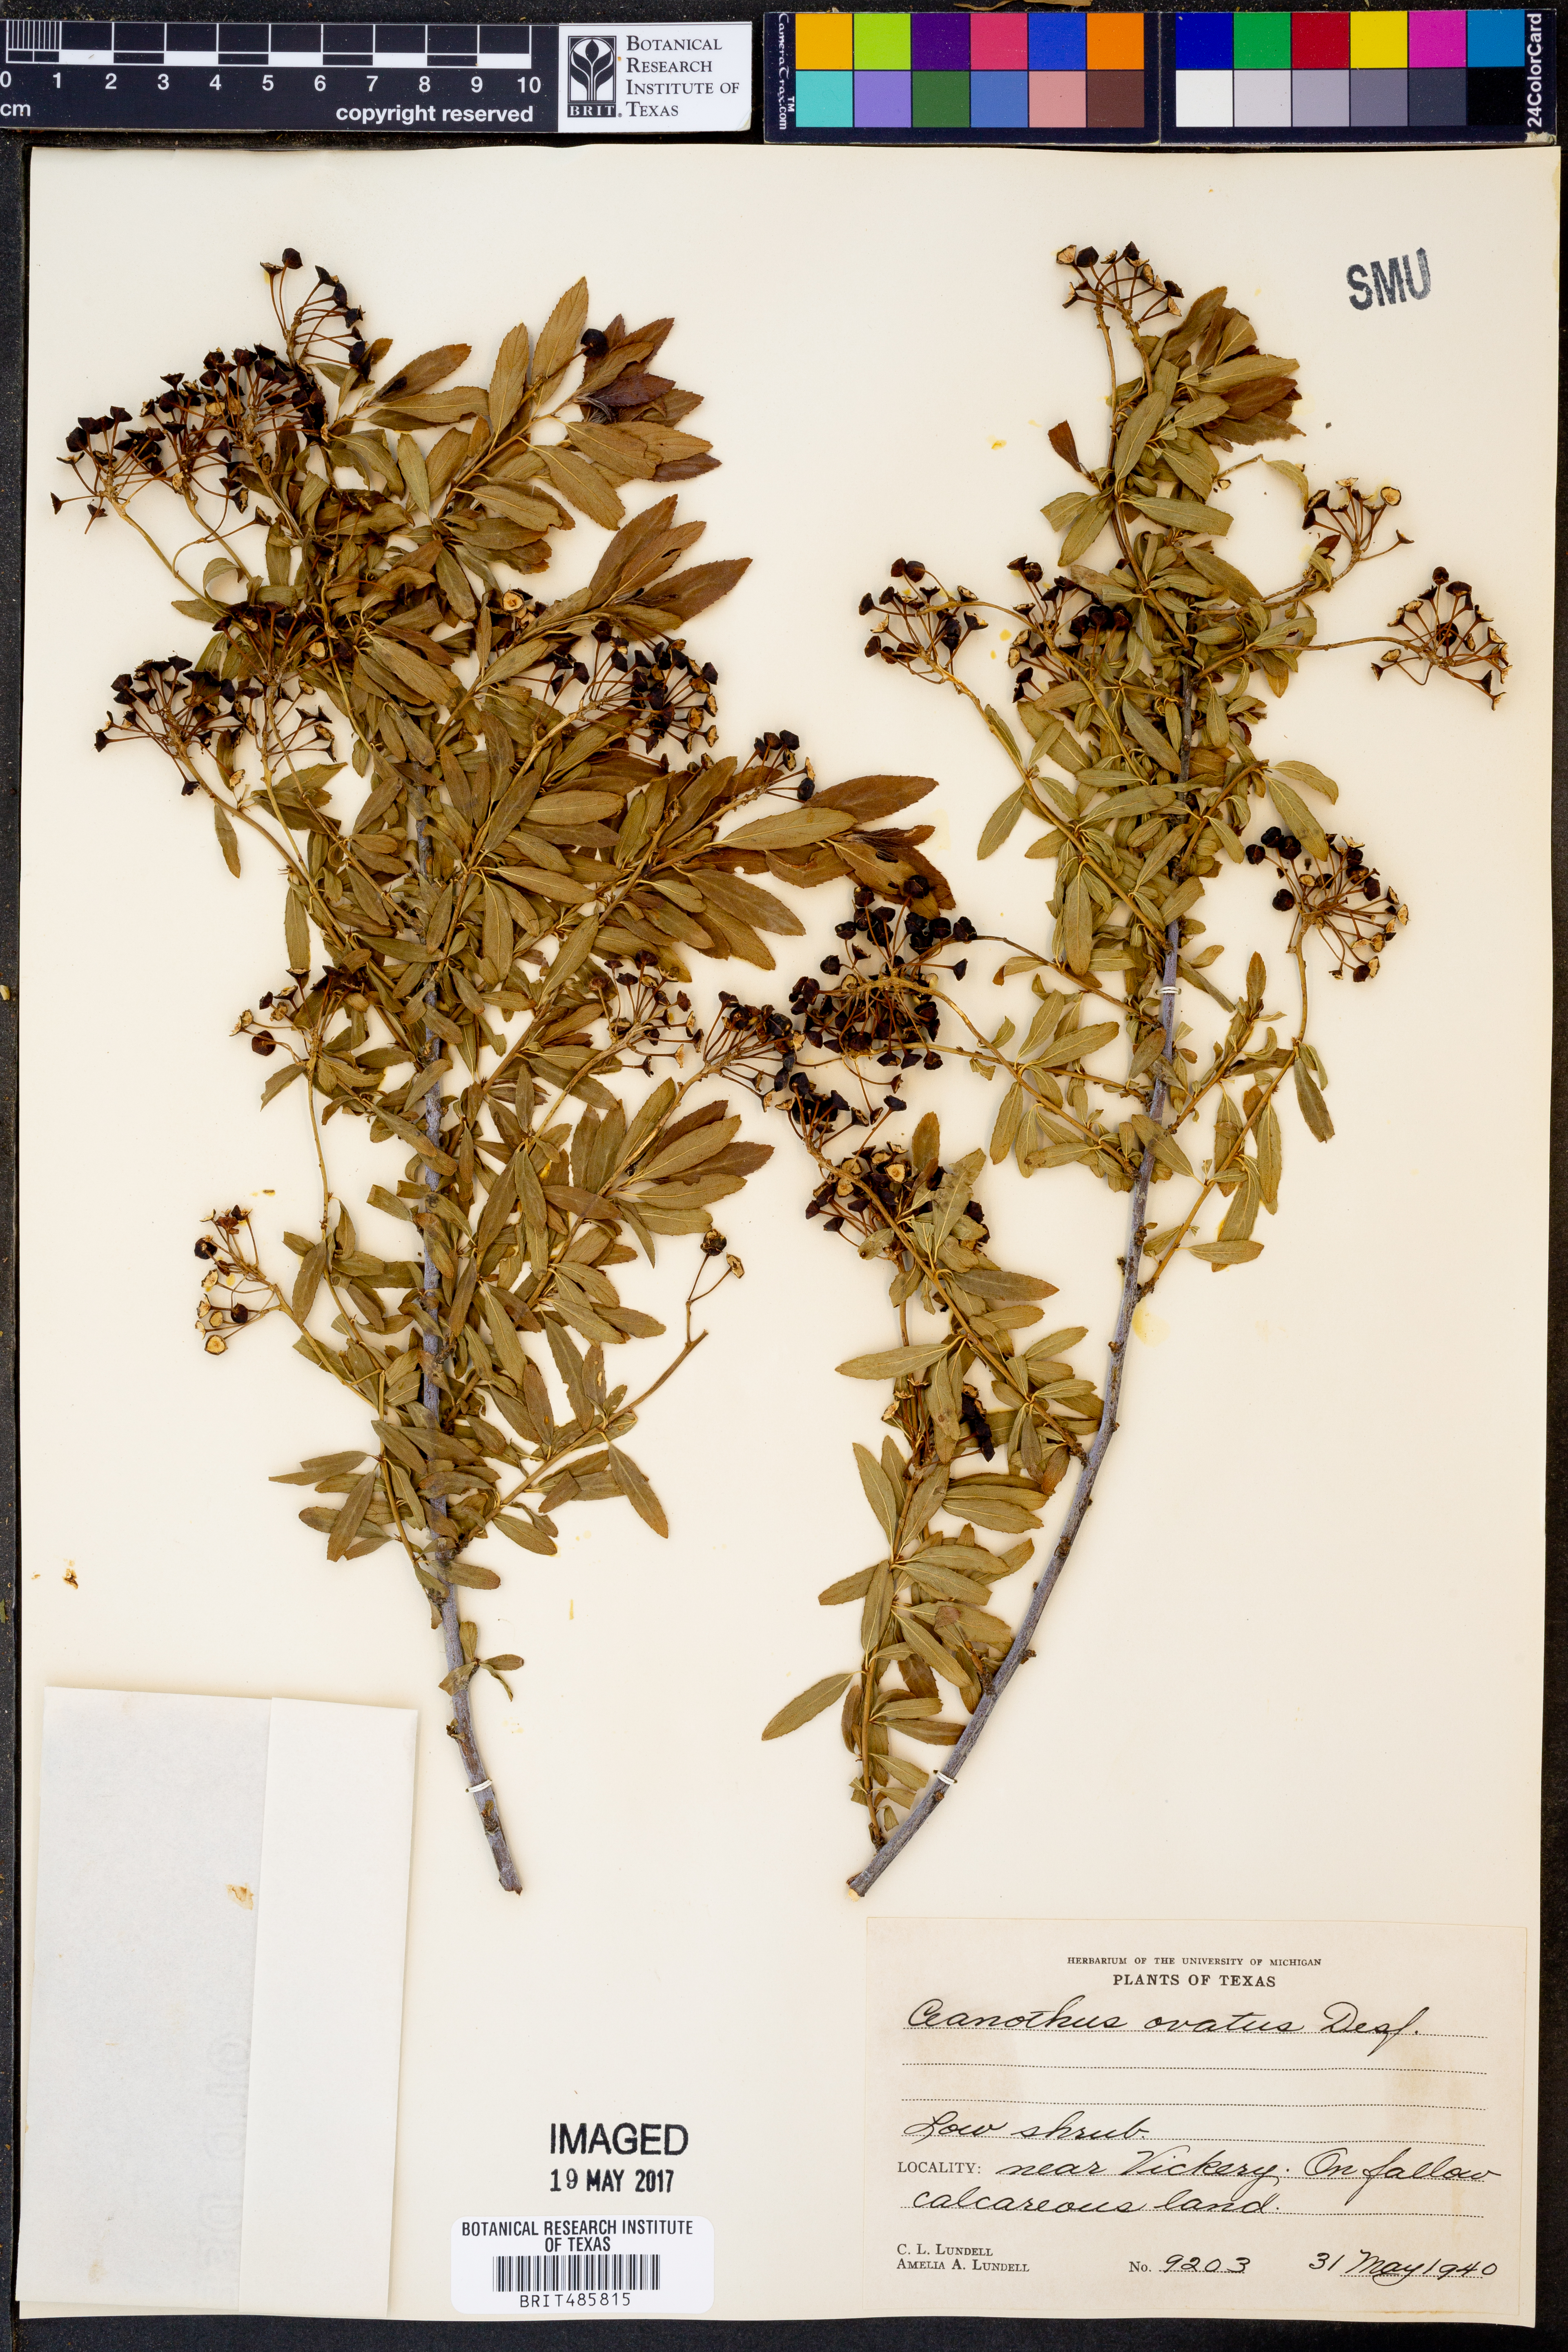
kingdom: Plantae
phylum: Tracheophyta
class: Magnoliopsida
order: Rosales
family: Rhamnaceae
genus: Ceanothus
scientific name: Ceanothus herbaceus
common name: Inland ceanothus
